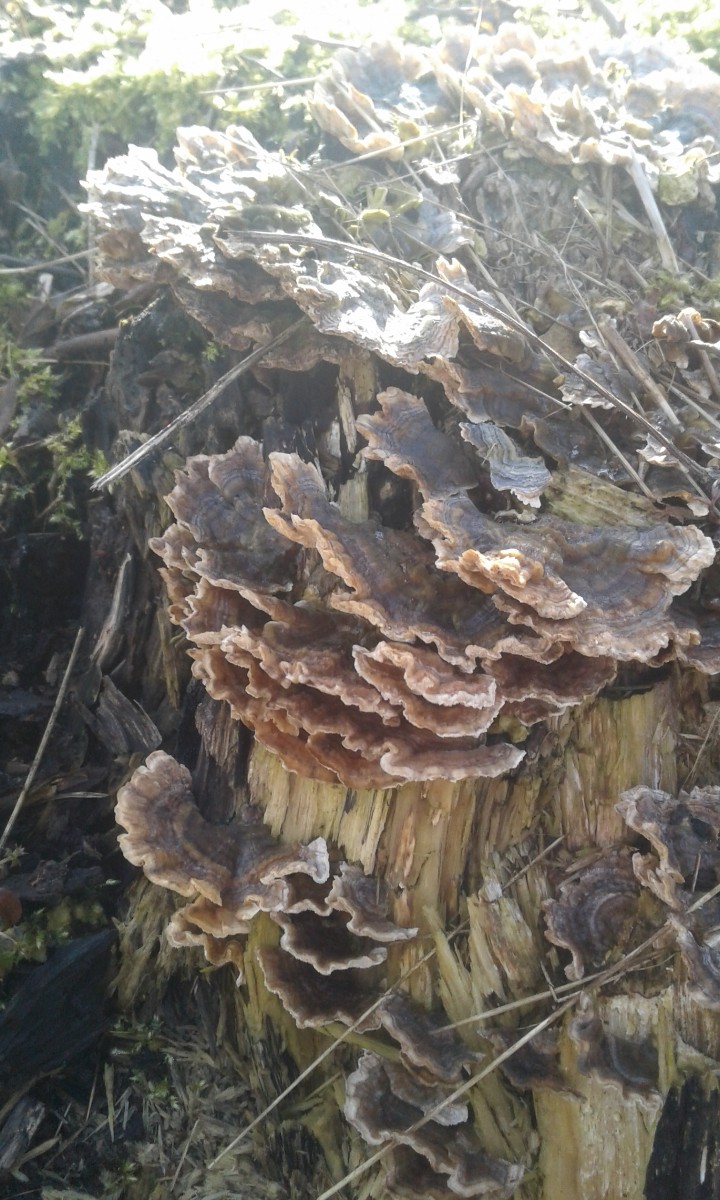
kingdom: Fungi
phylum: Basidiomycota
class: Agaricomycetes
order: Polyporales
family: Polyporaceae
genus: Trametes
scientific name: Trametes versicolor
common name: broget læderporesvamp
